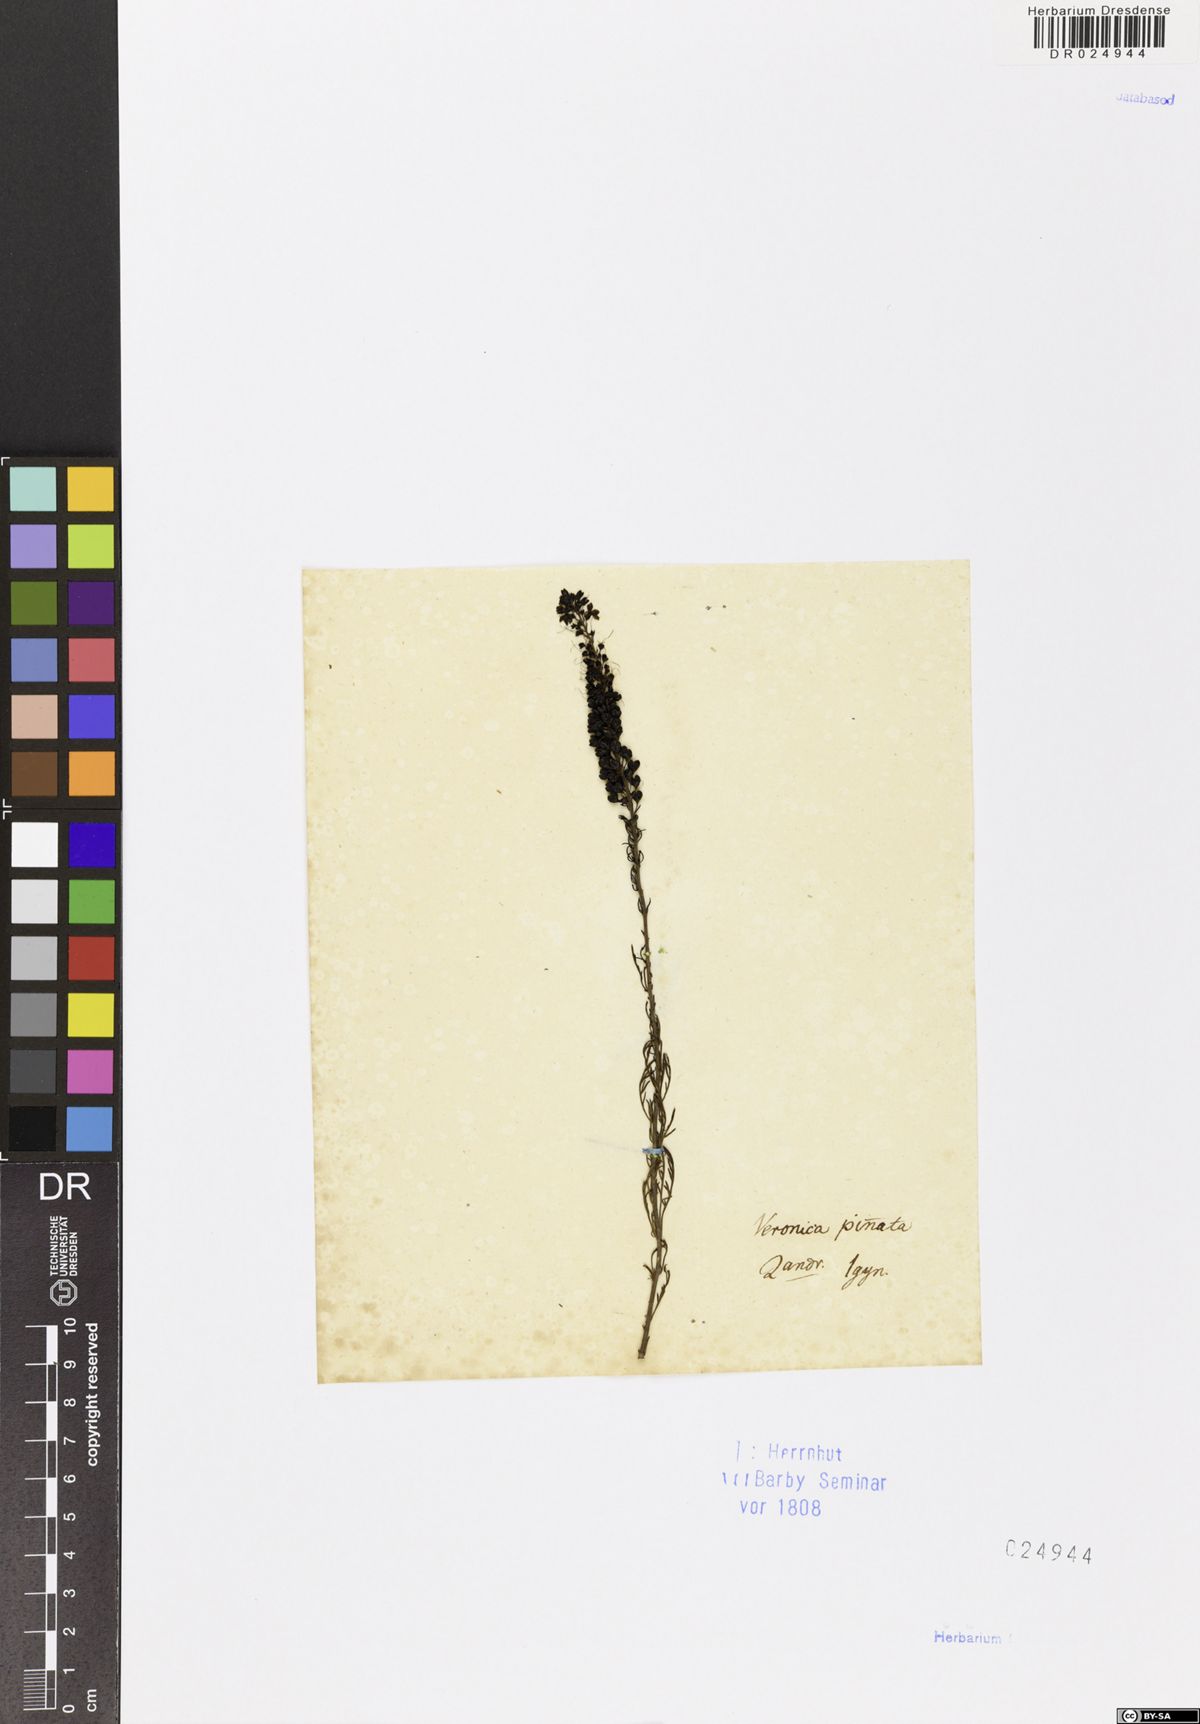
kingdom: Plantae
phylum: Tracheophyta
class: Magnoliopsida
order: Lamiales
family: Plantaginaceae
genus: Veronica
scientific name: Veronica pinnata
